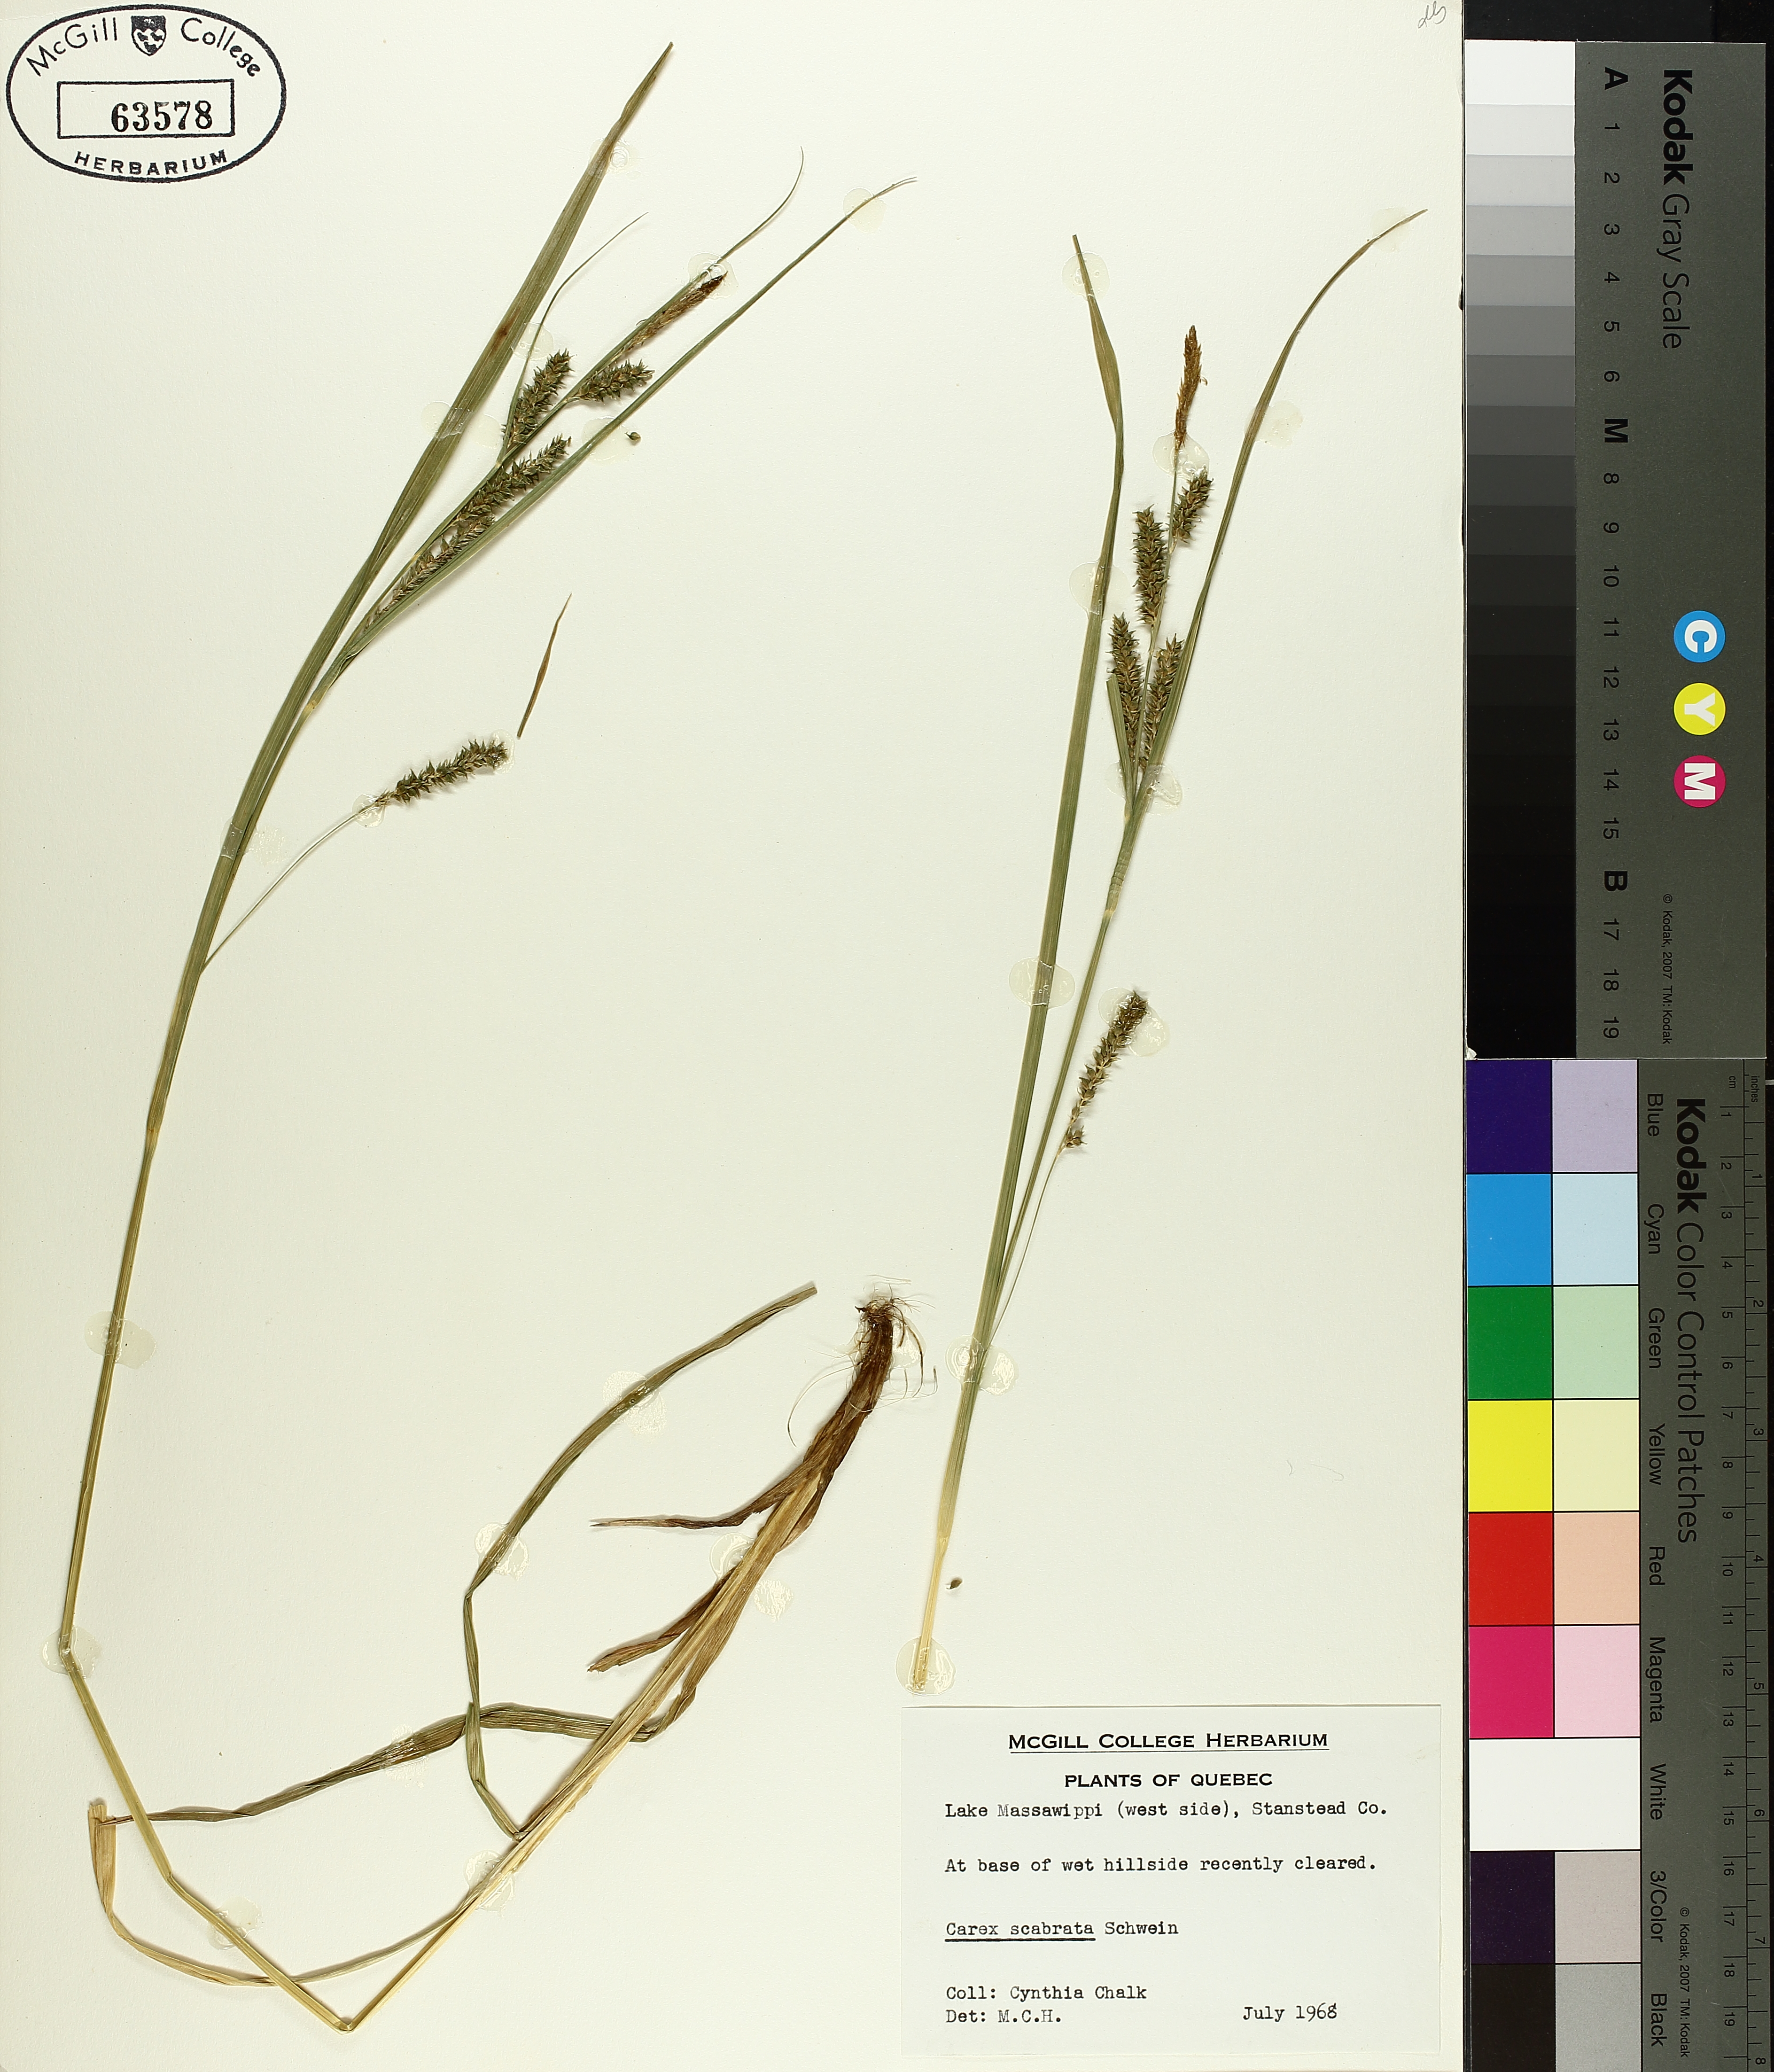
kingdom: Plantae
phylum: Tracheophyta
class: Liliopsida
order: Poales
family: Cyperaceae
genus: Carex
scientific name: Carex saxatilis
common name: Russet sedge
